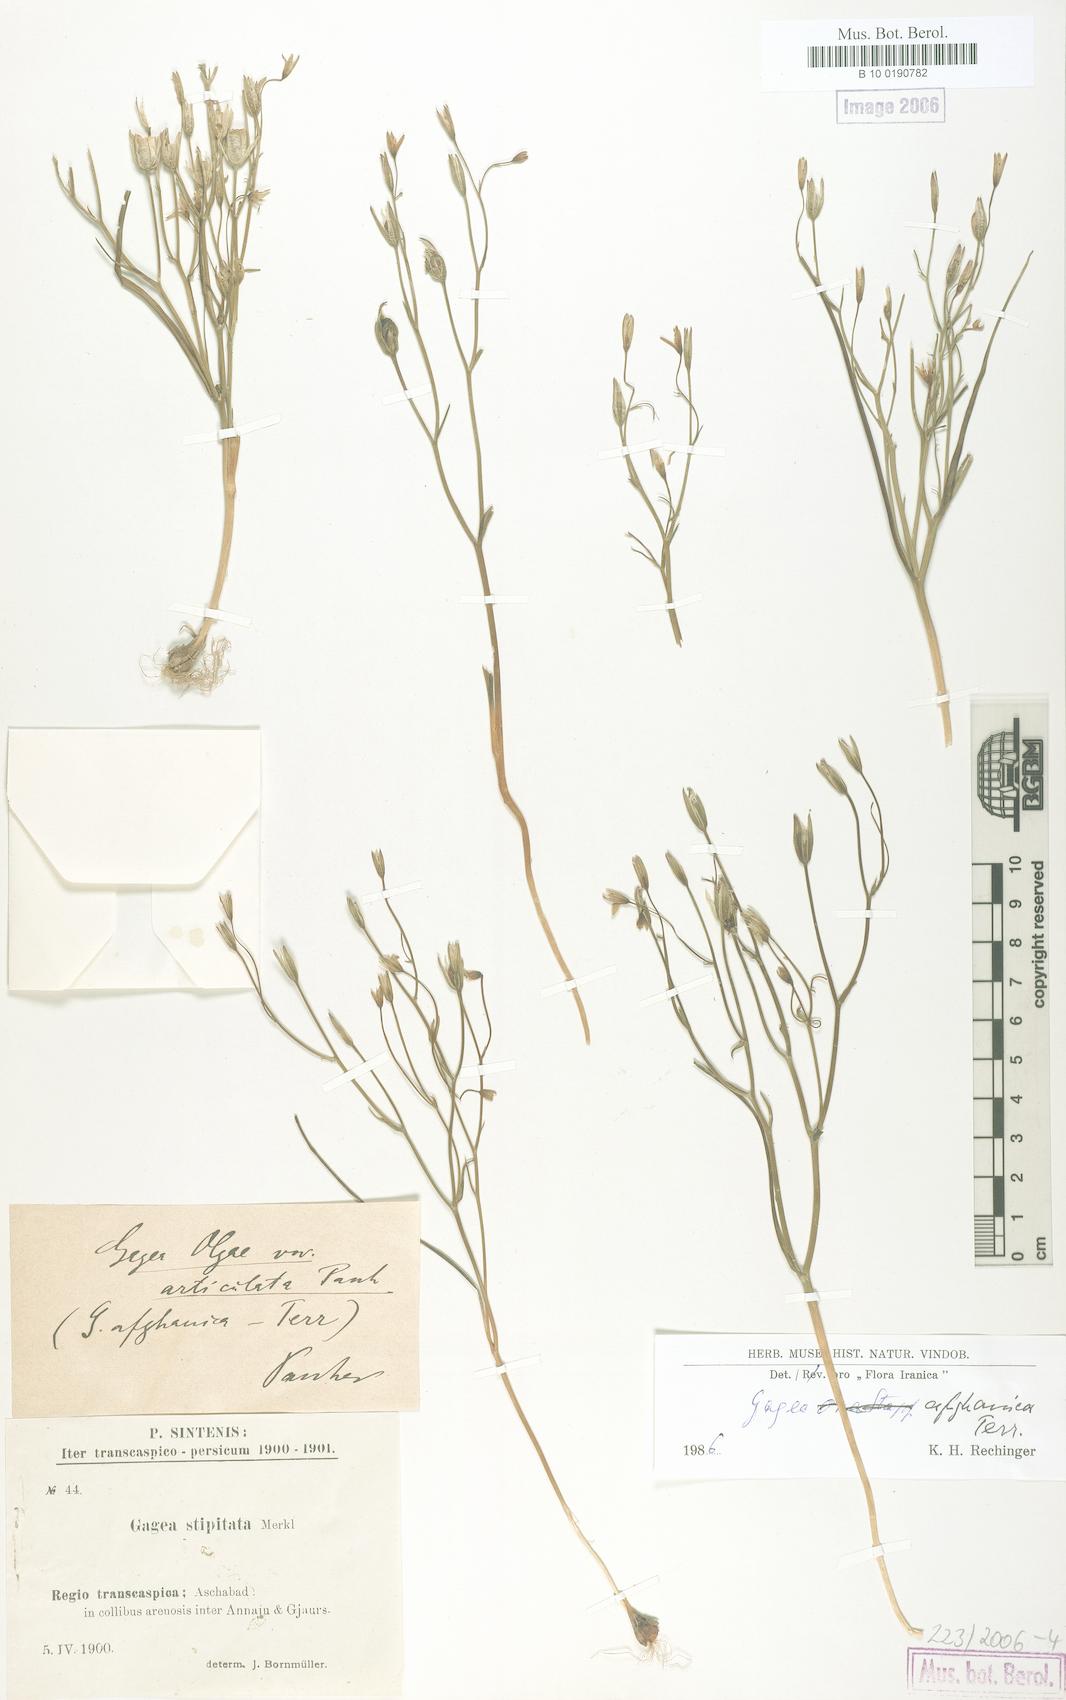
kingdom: Plantae
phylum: Tracheophyta
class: Liliopsida
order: Liliales
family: Liliaceae
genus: Gagea
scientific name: Gagea afghanica
